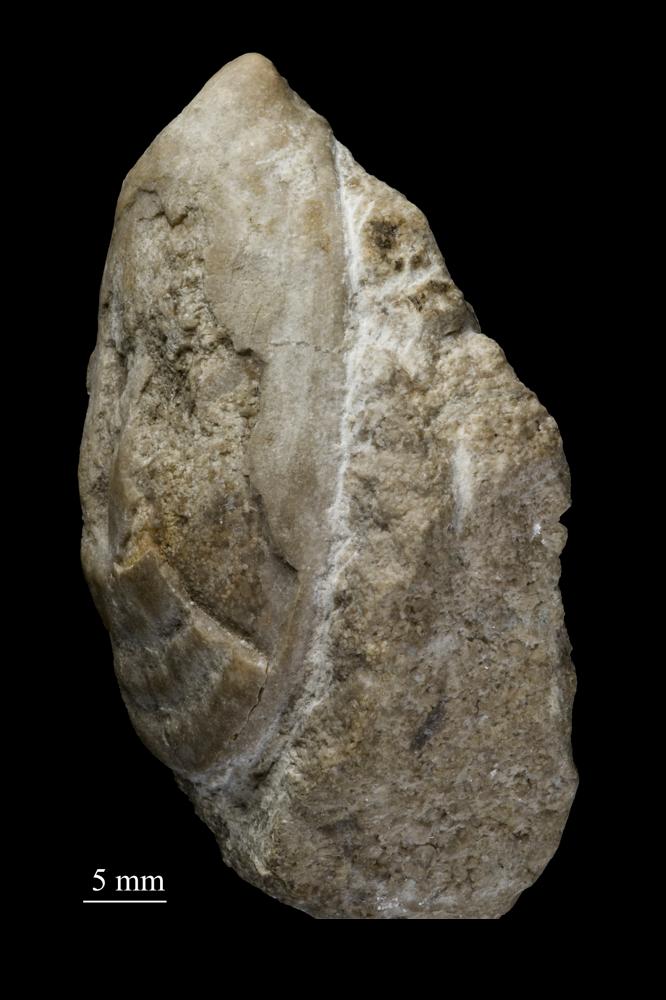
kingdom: Animalia
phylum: Mollusca
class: Monoplacophora
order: Tryblidiida
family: Tryblidiidae
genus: Tryblidium
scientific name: Tryblidium
